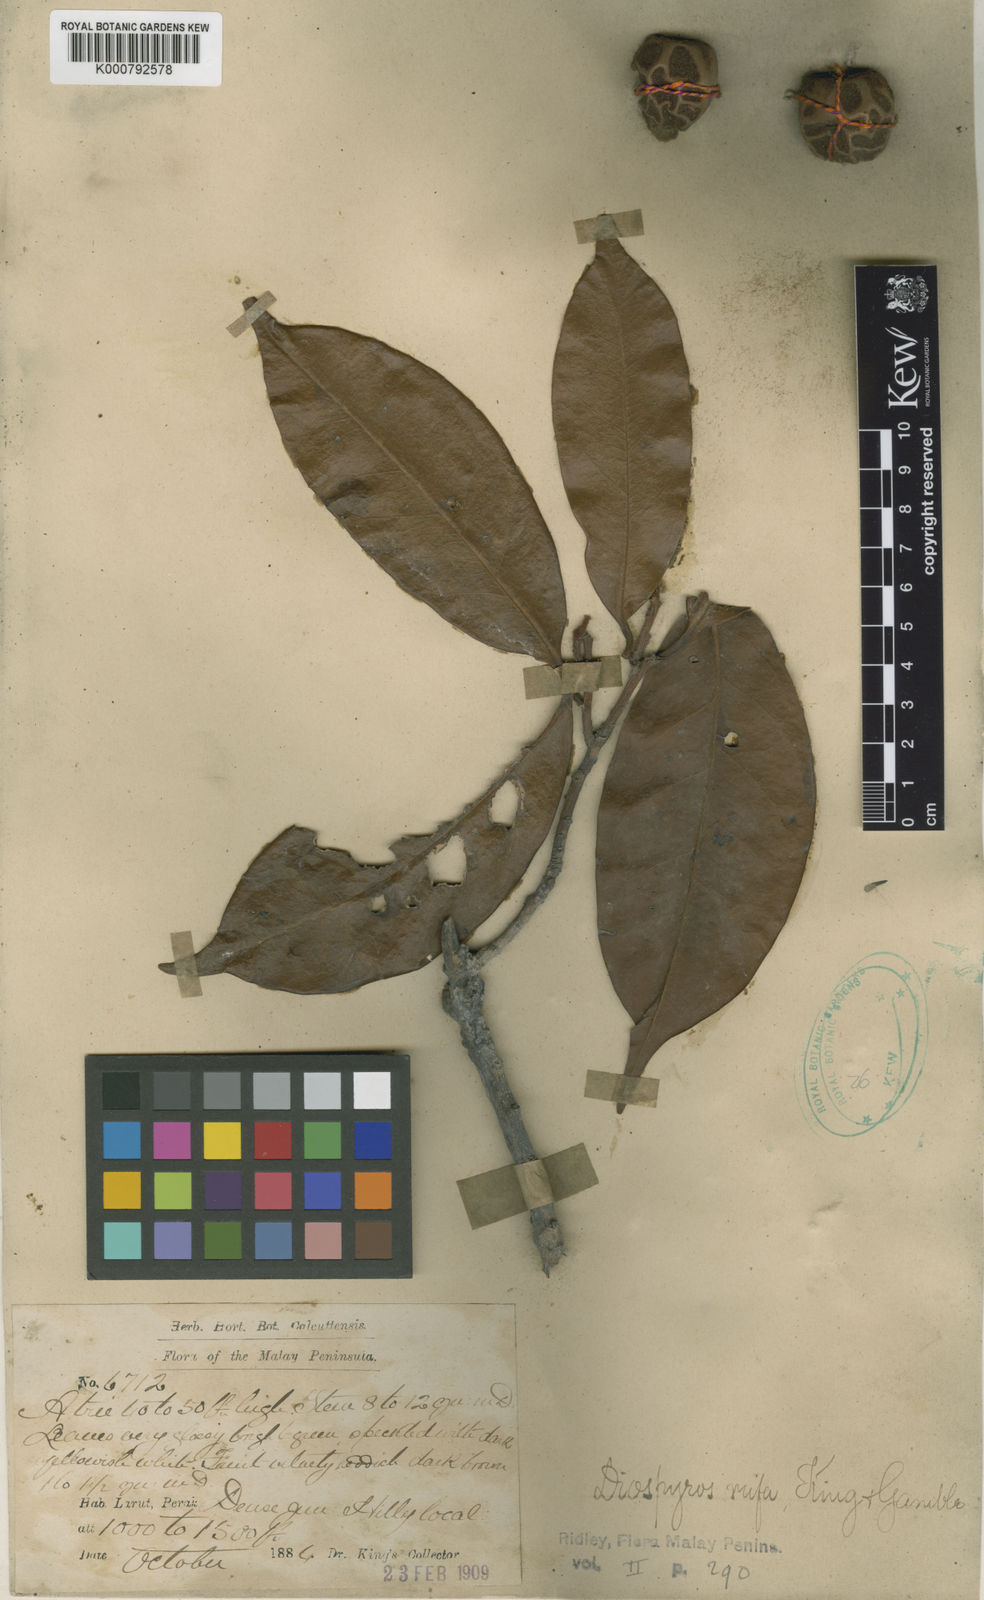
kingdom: Plantae
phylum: Tracheophyta
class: Magnoliopsida
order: Ericales
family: Ebenaceae
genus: Diospyros
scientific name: Diospyros rufa
